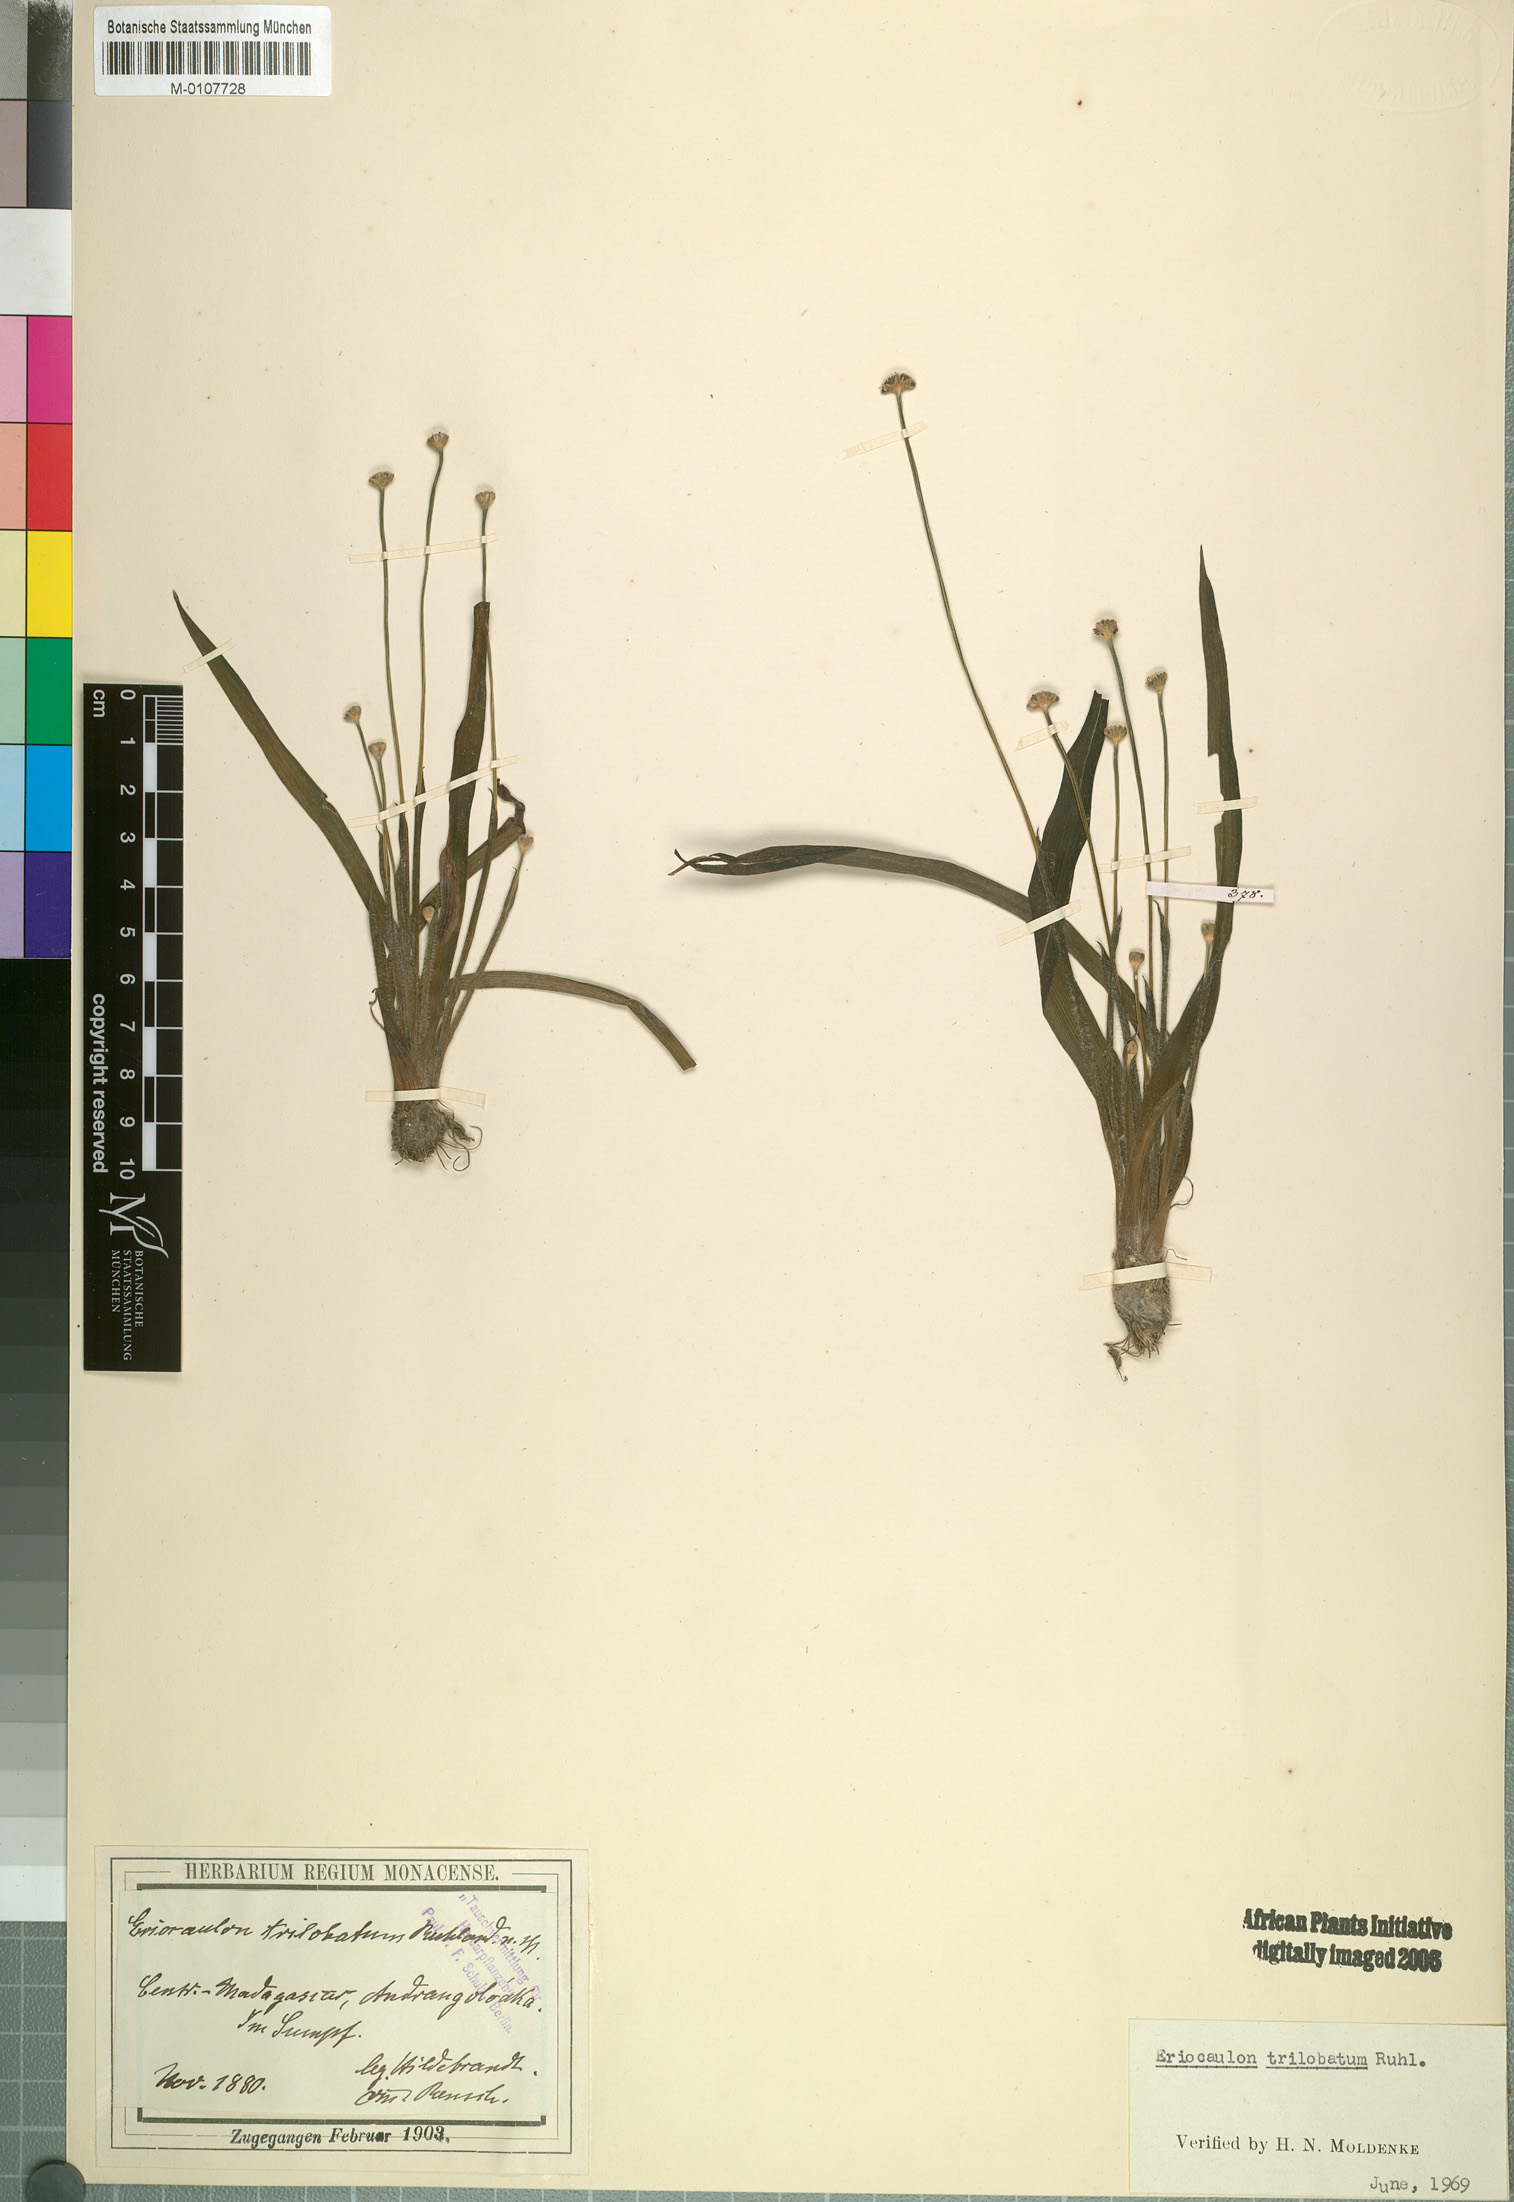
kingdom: Plantae
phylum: Tracheophyta
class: Liliopsida
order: Poales
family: Eriocaulaceae
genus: Eriocaulon
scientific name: Eriocaulon trilobatum
